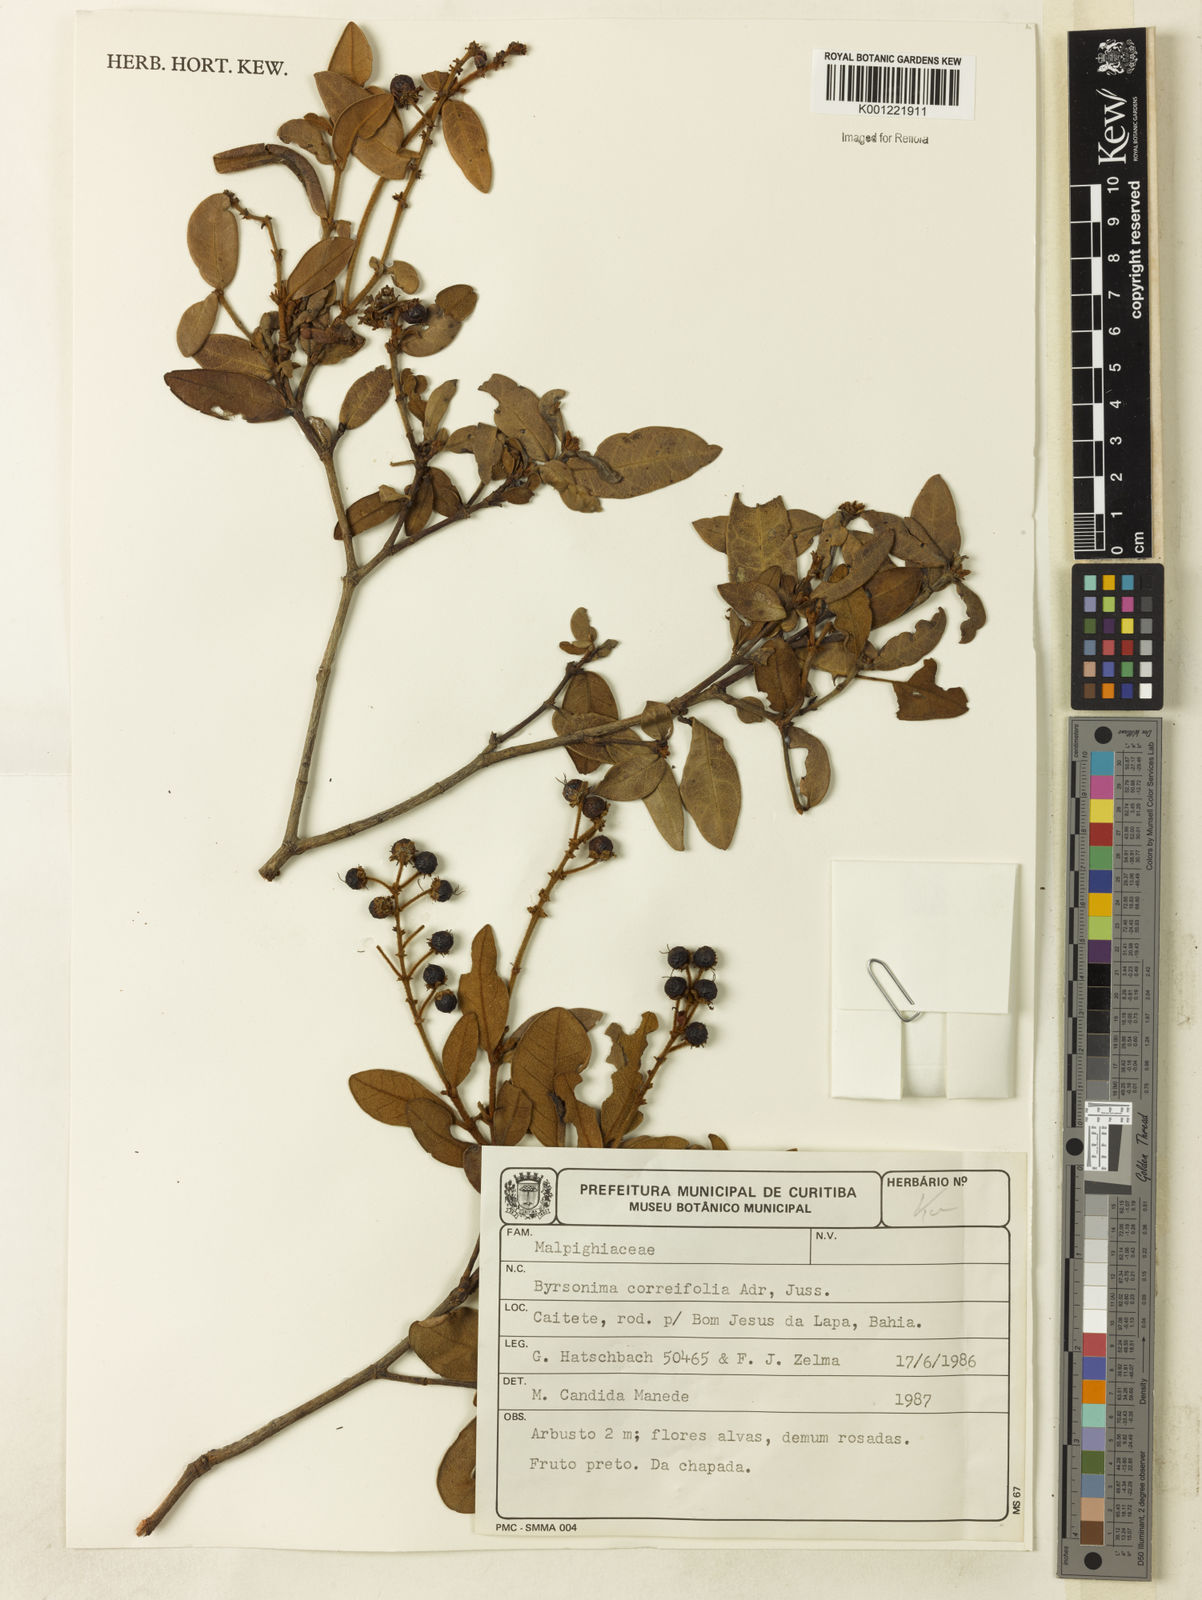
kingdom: Plantae
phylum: Tracheophyta
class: Magnoliopsida
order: Malpighiales
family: Malpighiaceae
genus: Byrsonima
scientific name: Byrsonima correifolia
